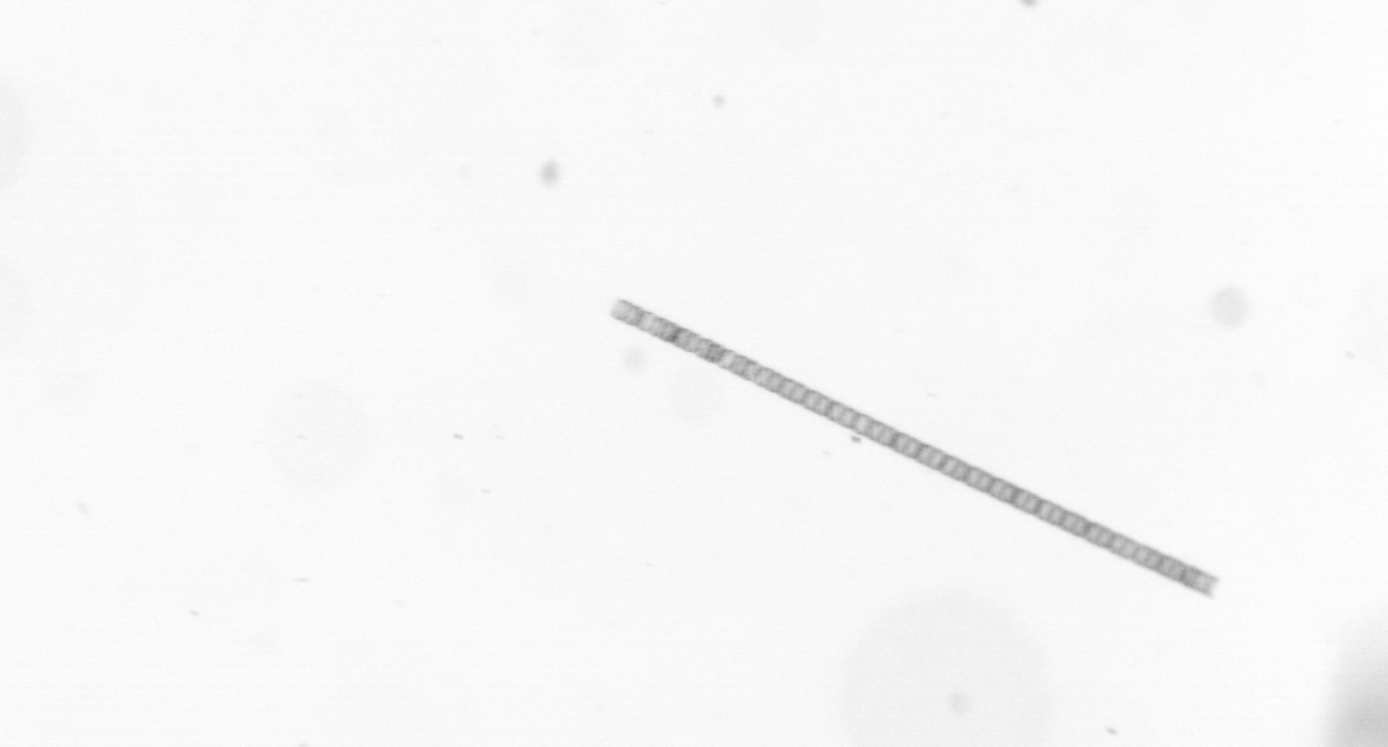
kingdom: Chromista
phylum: Ochrophyta
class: Bacillariophyceae
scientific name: Bacillariophyceae
